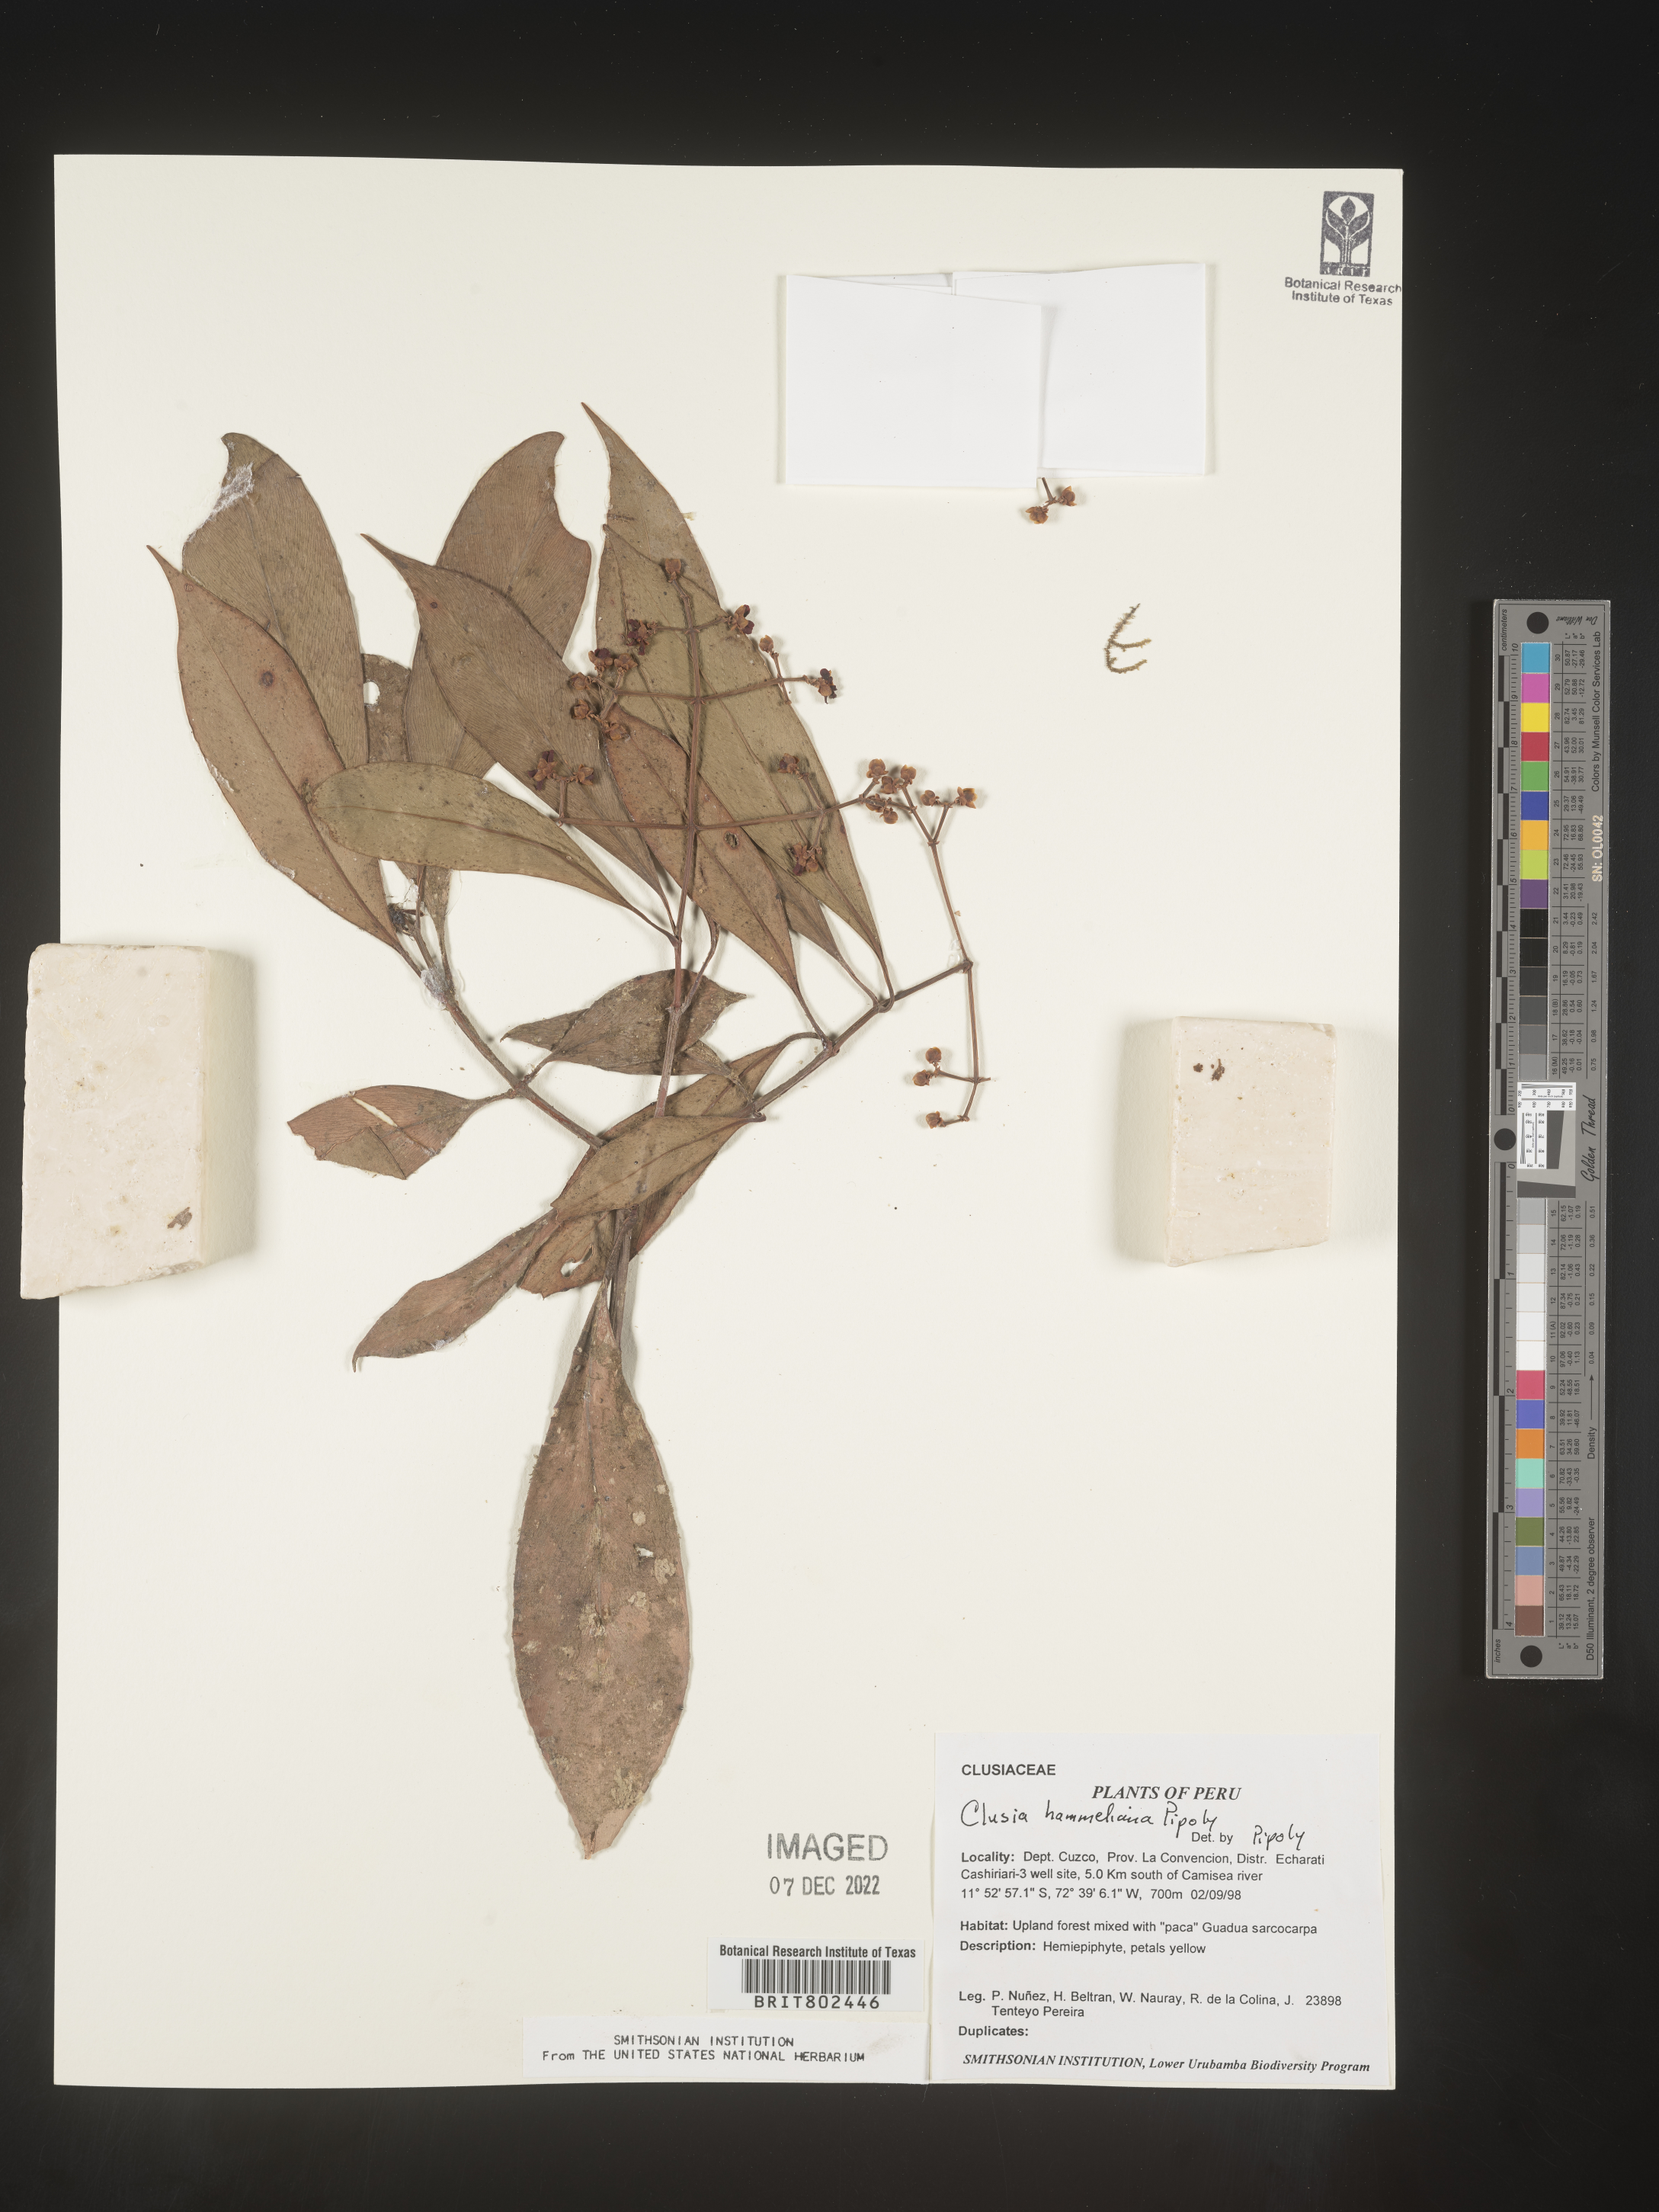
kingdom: Plantae
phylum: Tracheophyta
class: Magnoliopsida
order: Malpighiales
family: Clusiaceae
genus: Clusia
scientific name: Clusia hammeliana
